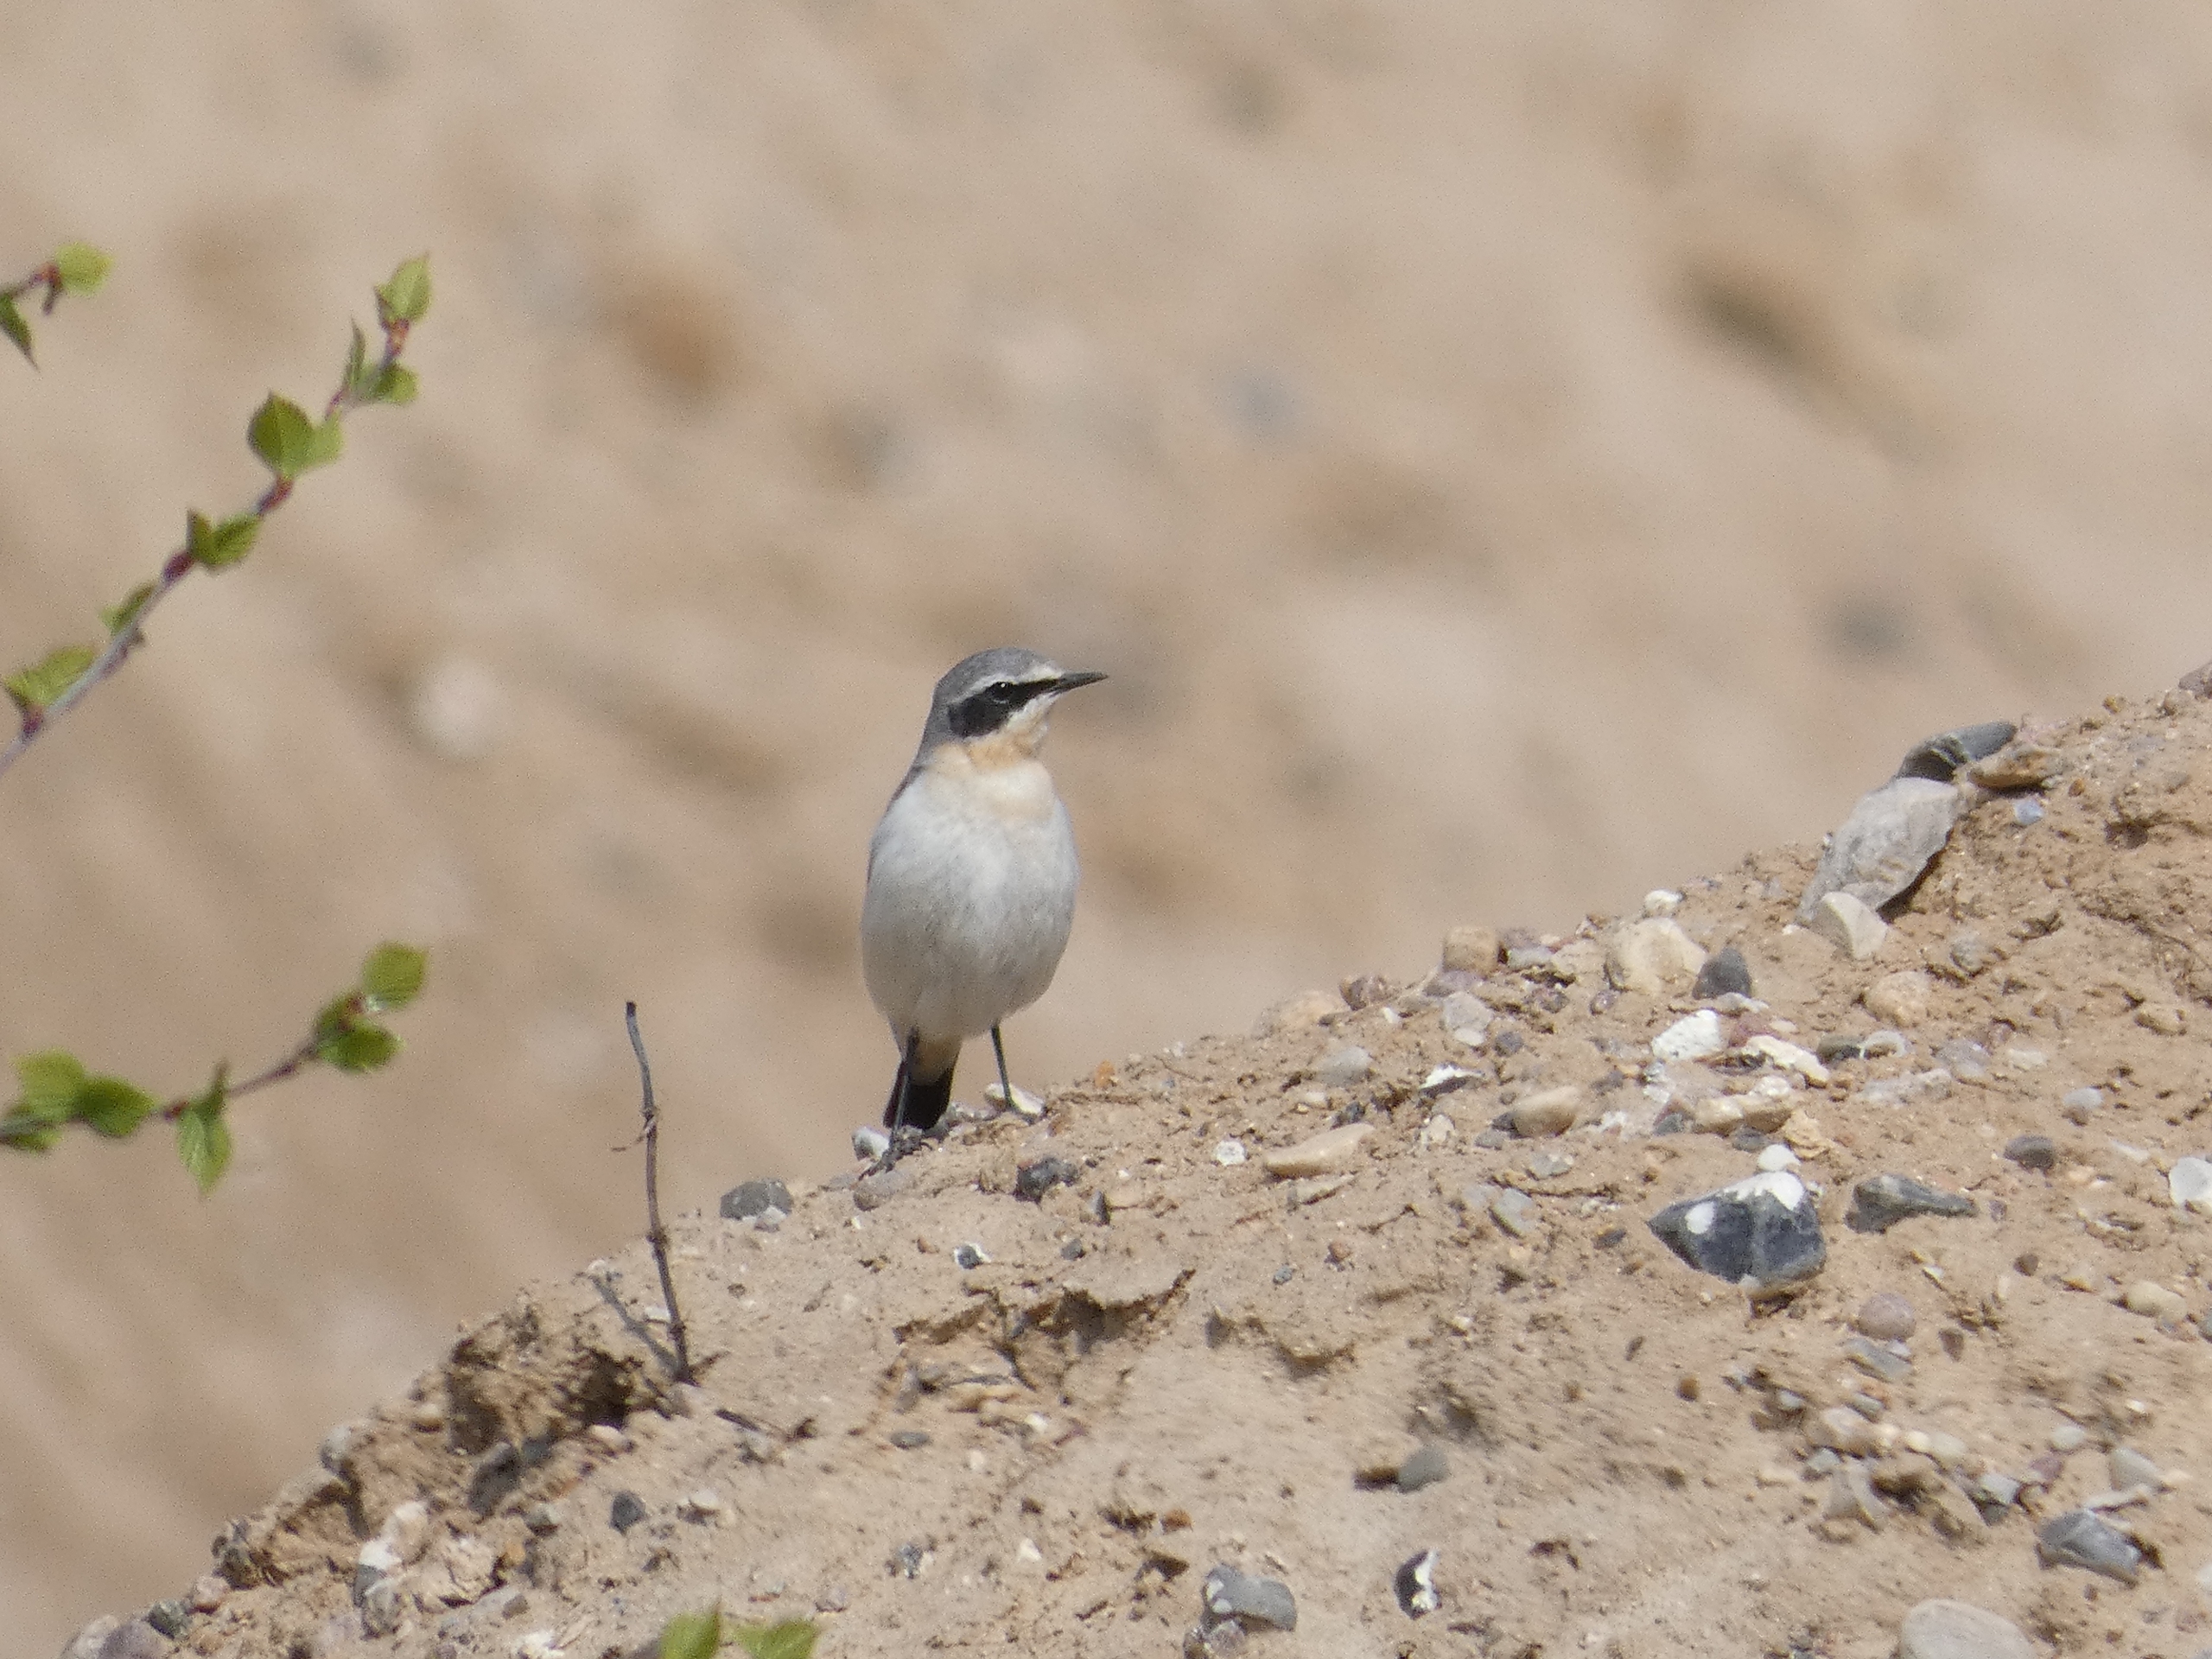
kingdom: Animalia
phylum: Chordata
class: Aves
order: Passeriformes
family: Muscicapidae
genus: Oenanthe
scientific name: Oenanthe oenanthe
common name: Stenpikker
